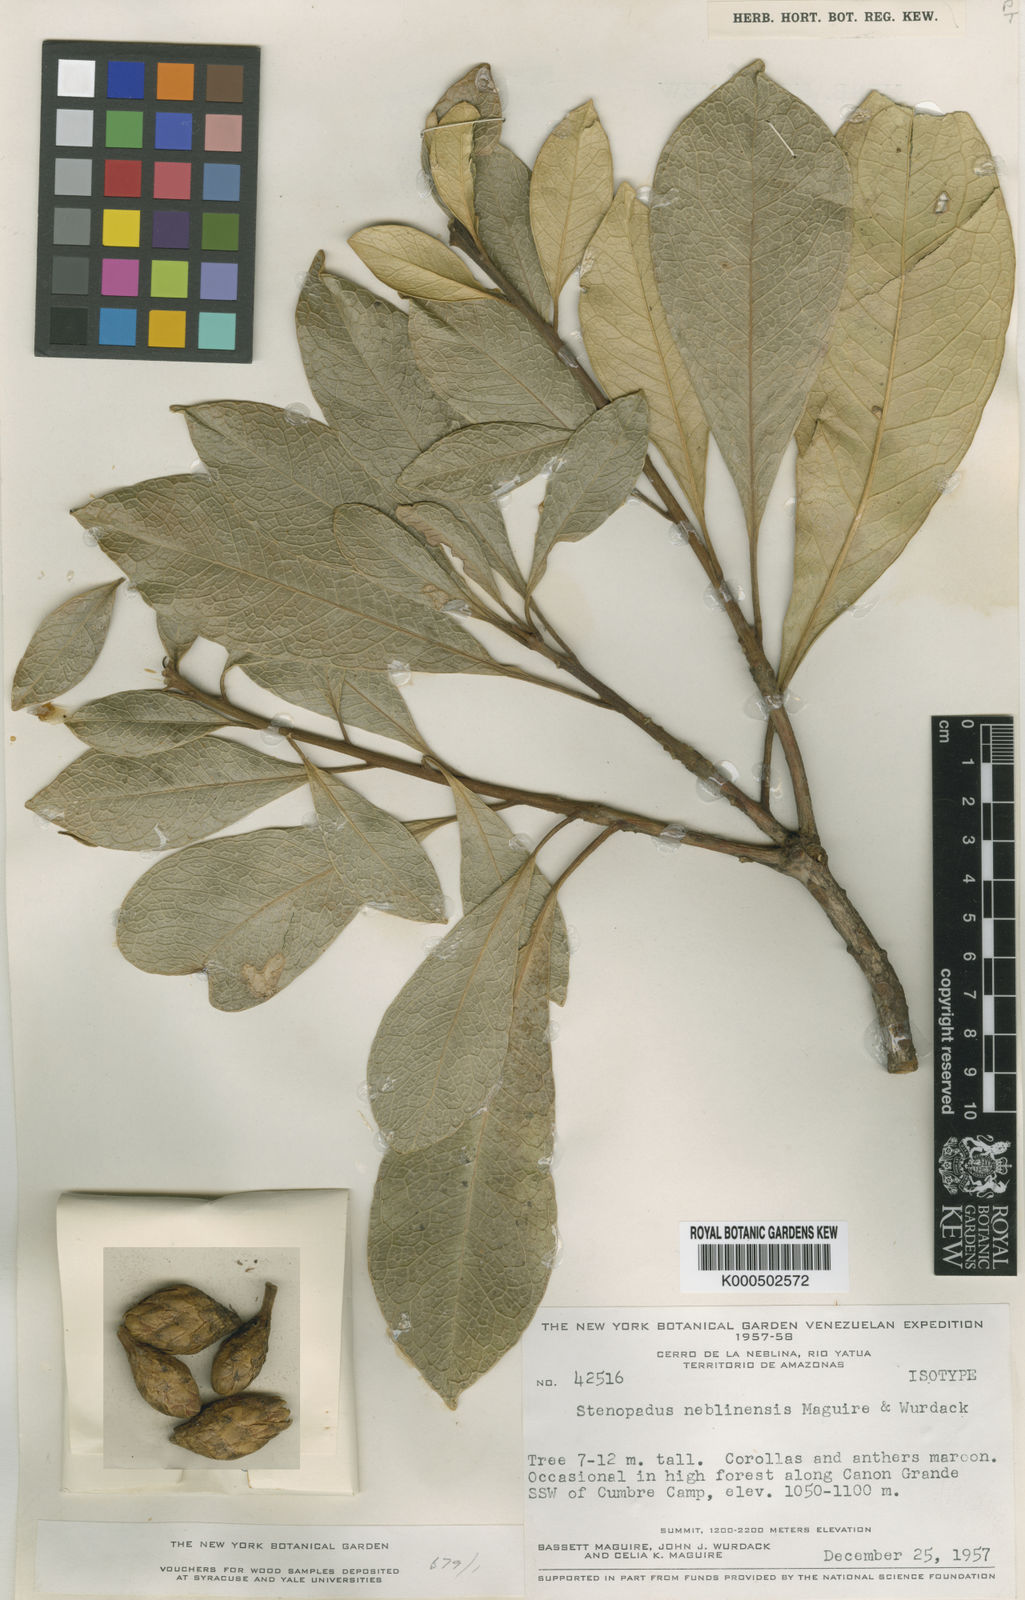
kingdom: Plantae
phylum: Tracheophyta
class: Magnoliopsida
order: Asterales
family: Asteraceae
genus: Stenopadus
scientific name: Stenopadus talaumifolius
